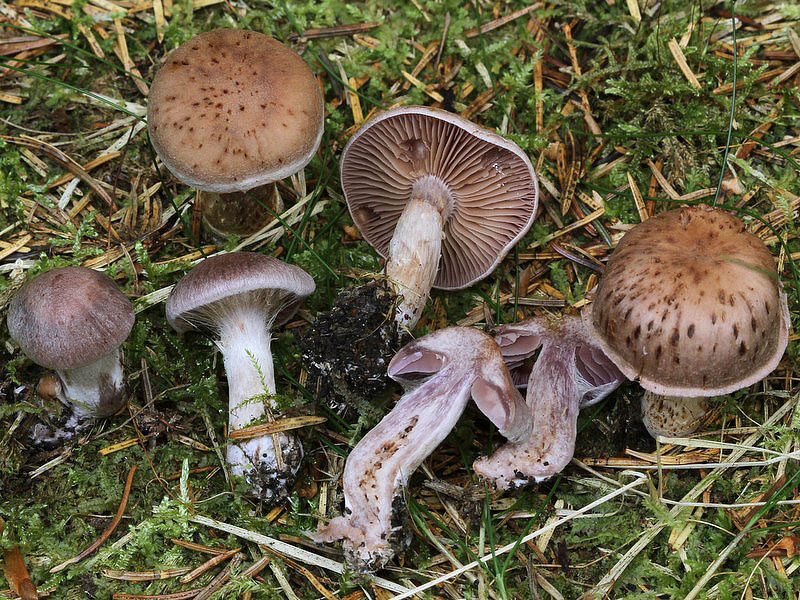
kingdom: Fungi
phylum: Basidiomycota
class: Agaricomycetes
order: Agaricales
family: Cortinariaceae
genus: Cortinarius
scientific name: Cortinarius kauffmanianus
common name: plantage-slørhat
